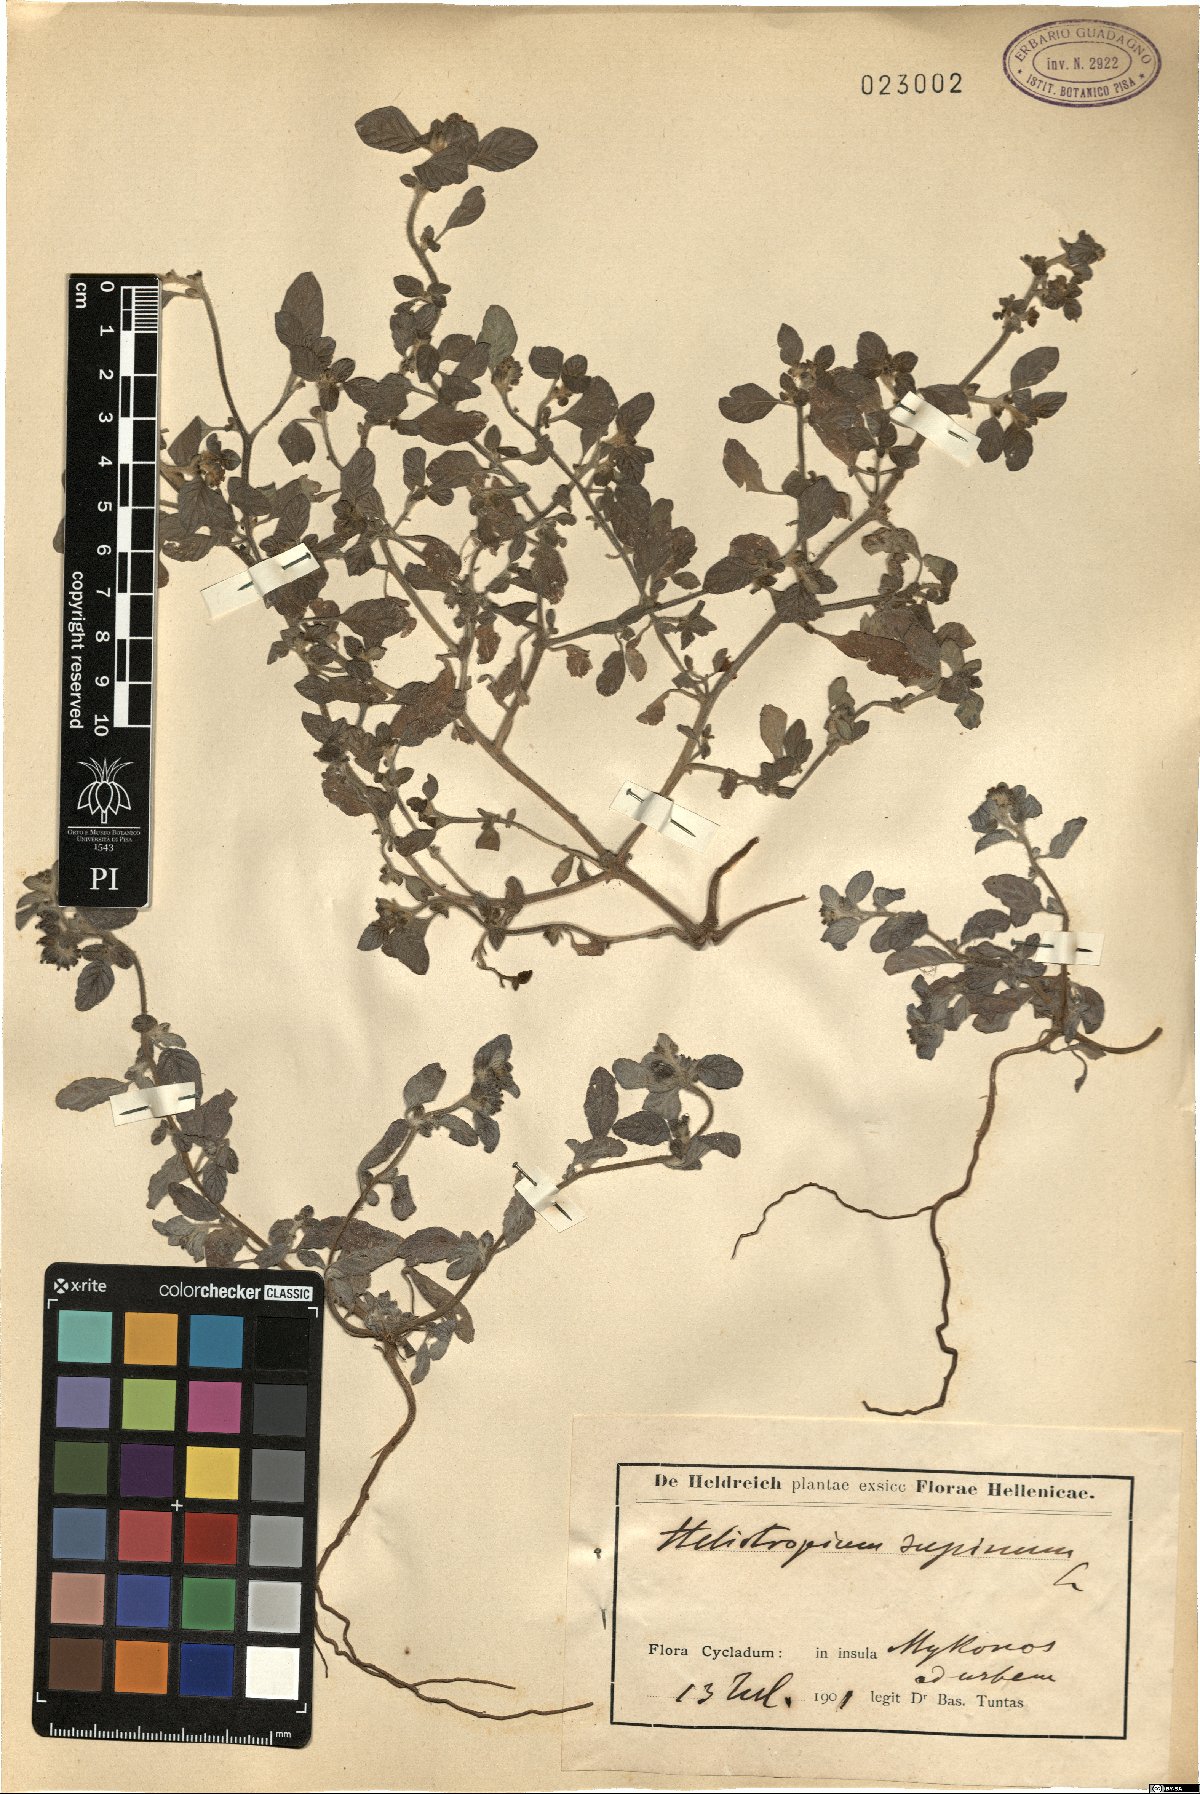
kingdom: Plantae
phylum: Tracheophyta
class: Magnoliopsida
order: Boraginales
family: Heliotropiaceae
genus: Heliotropium
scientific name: Heliotropium supinum
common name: Dwarf heliotrope
